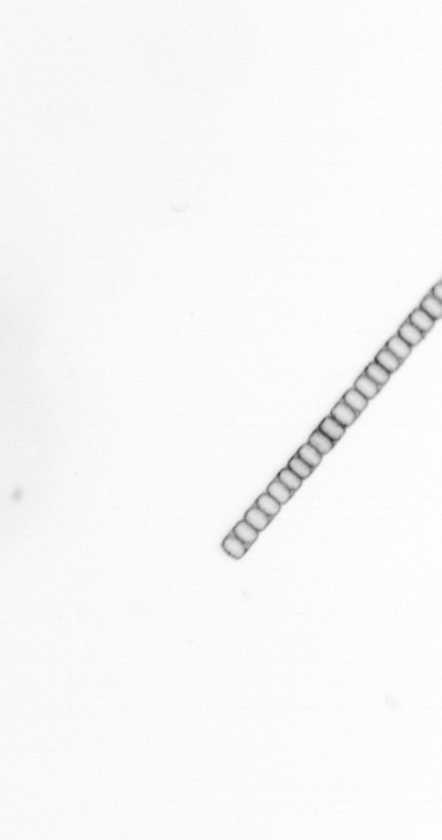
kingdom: Chromista
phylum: Ochrophyta
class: Bacillariophyceae
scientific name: Bacillariophyceae
